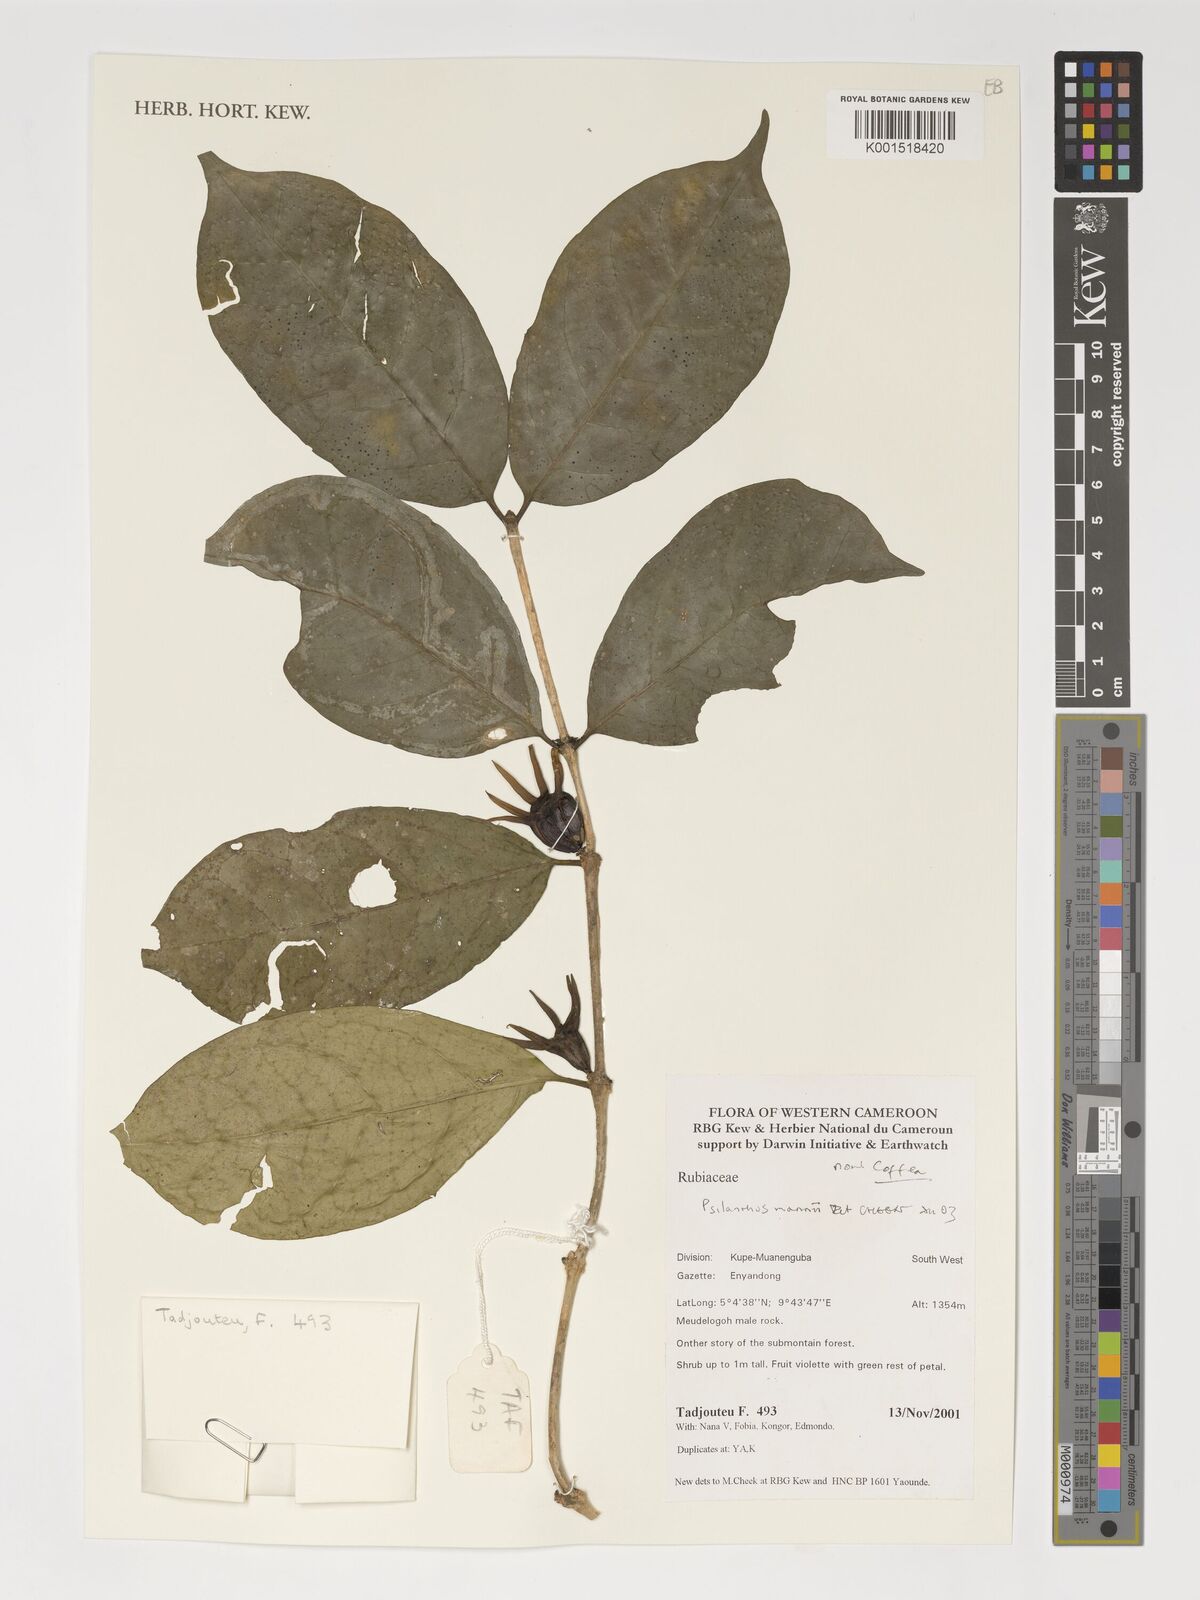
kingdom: Plantae
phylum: Tracheophyta
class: Magnoliopsida
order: Gentianales
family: Rubiaceae
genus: Coffea
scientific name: Coffea mannii
